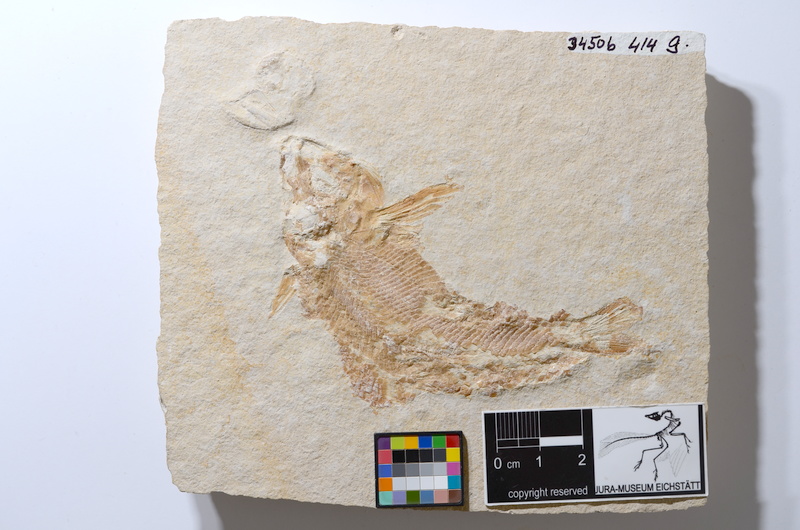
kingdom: Animalia
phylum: Chordata
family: Ophiopsiellidae
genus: Furo
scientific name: Furo latimanus
